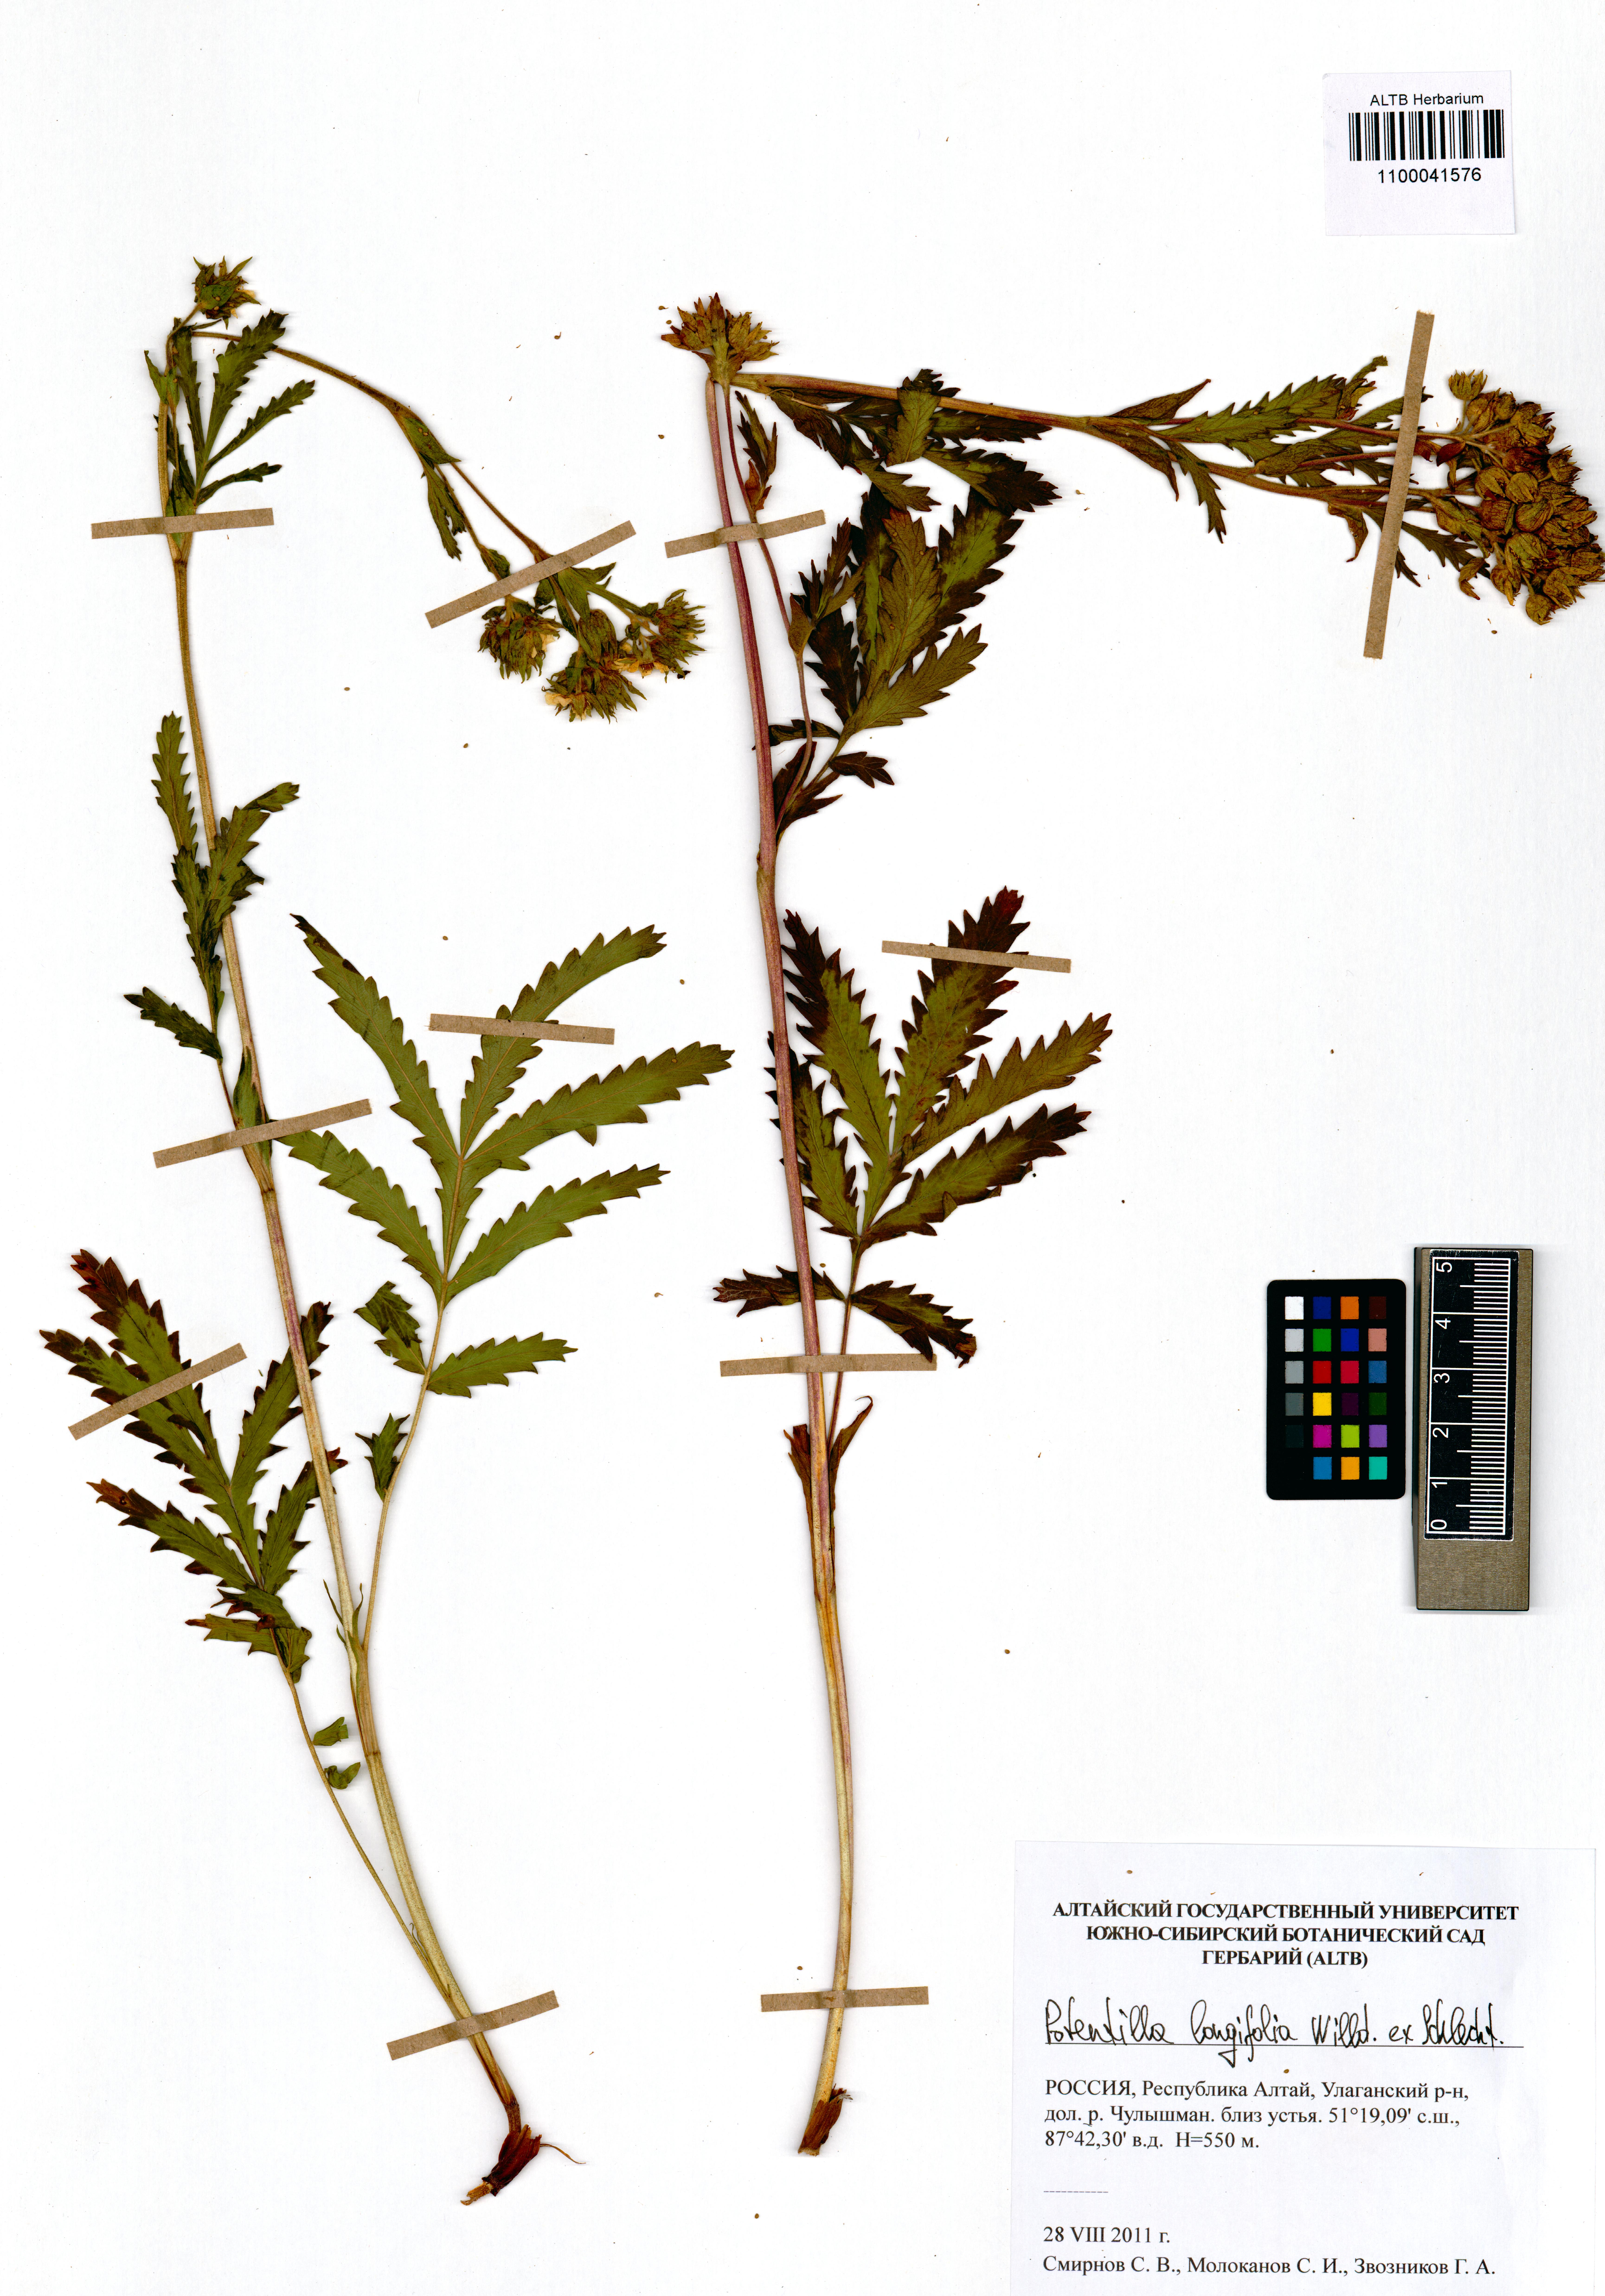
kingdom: Plantae
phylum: Tracheophyta
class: Magnoliopsida
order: Rosales
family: Rosaceae
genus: Potentilla
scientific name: Potentilla longifolia
